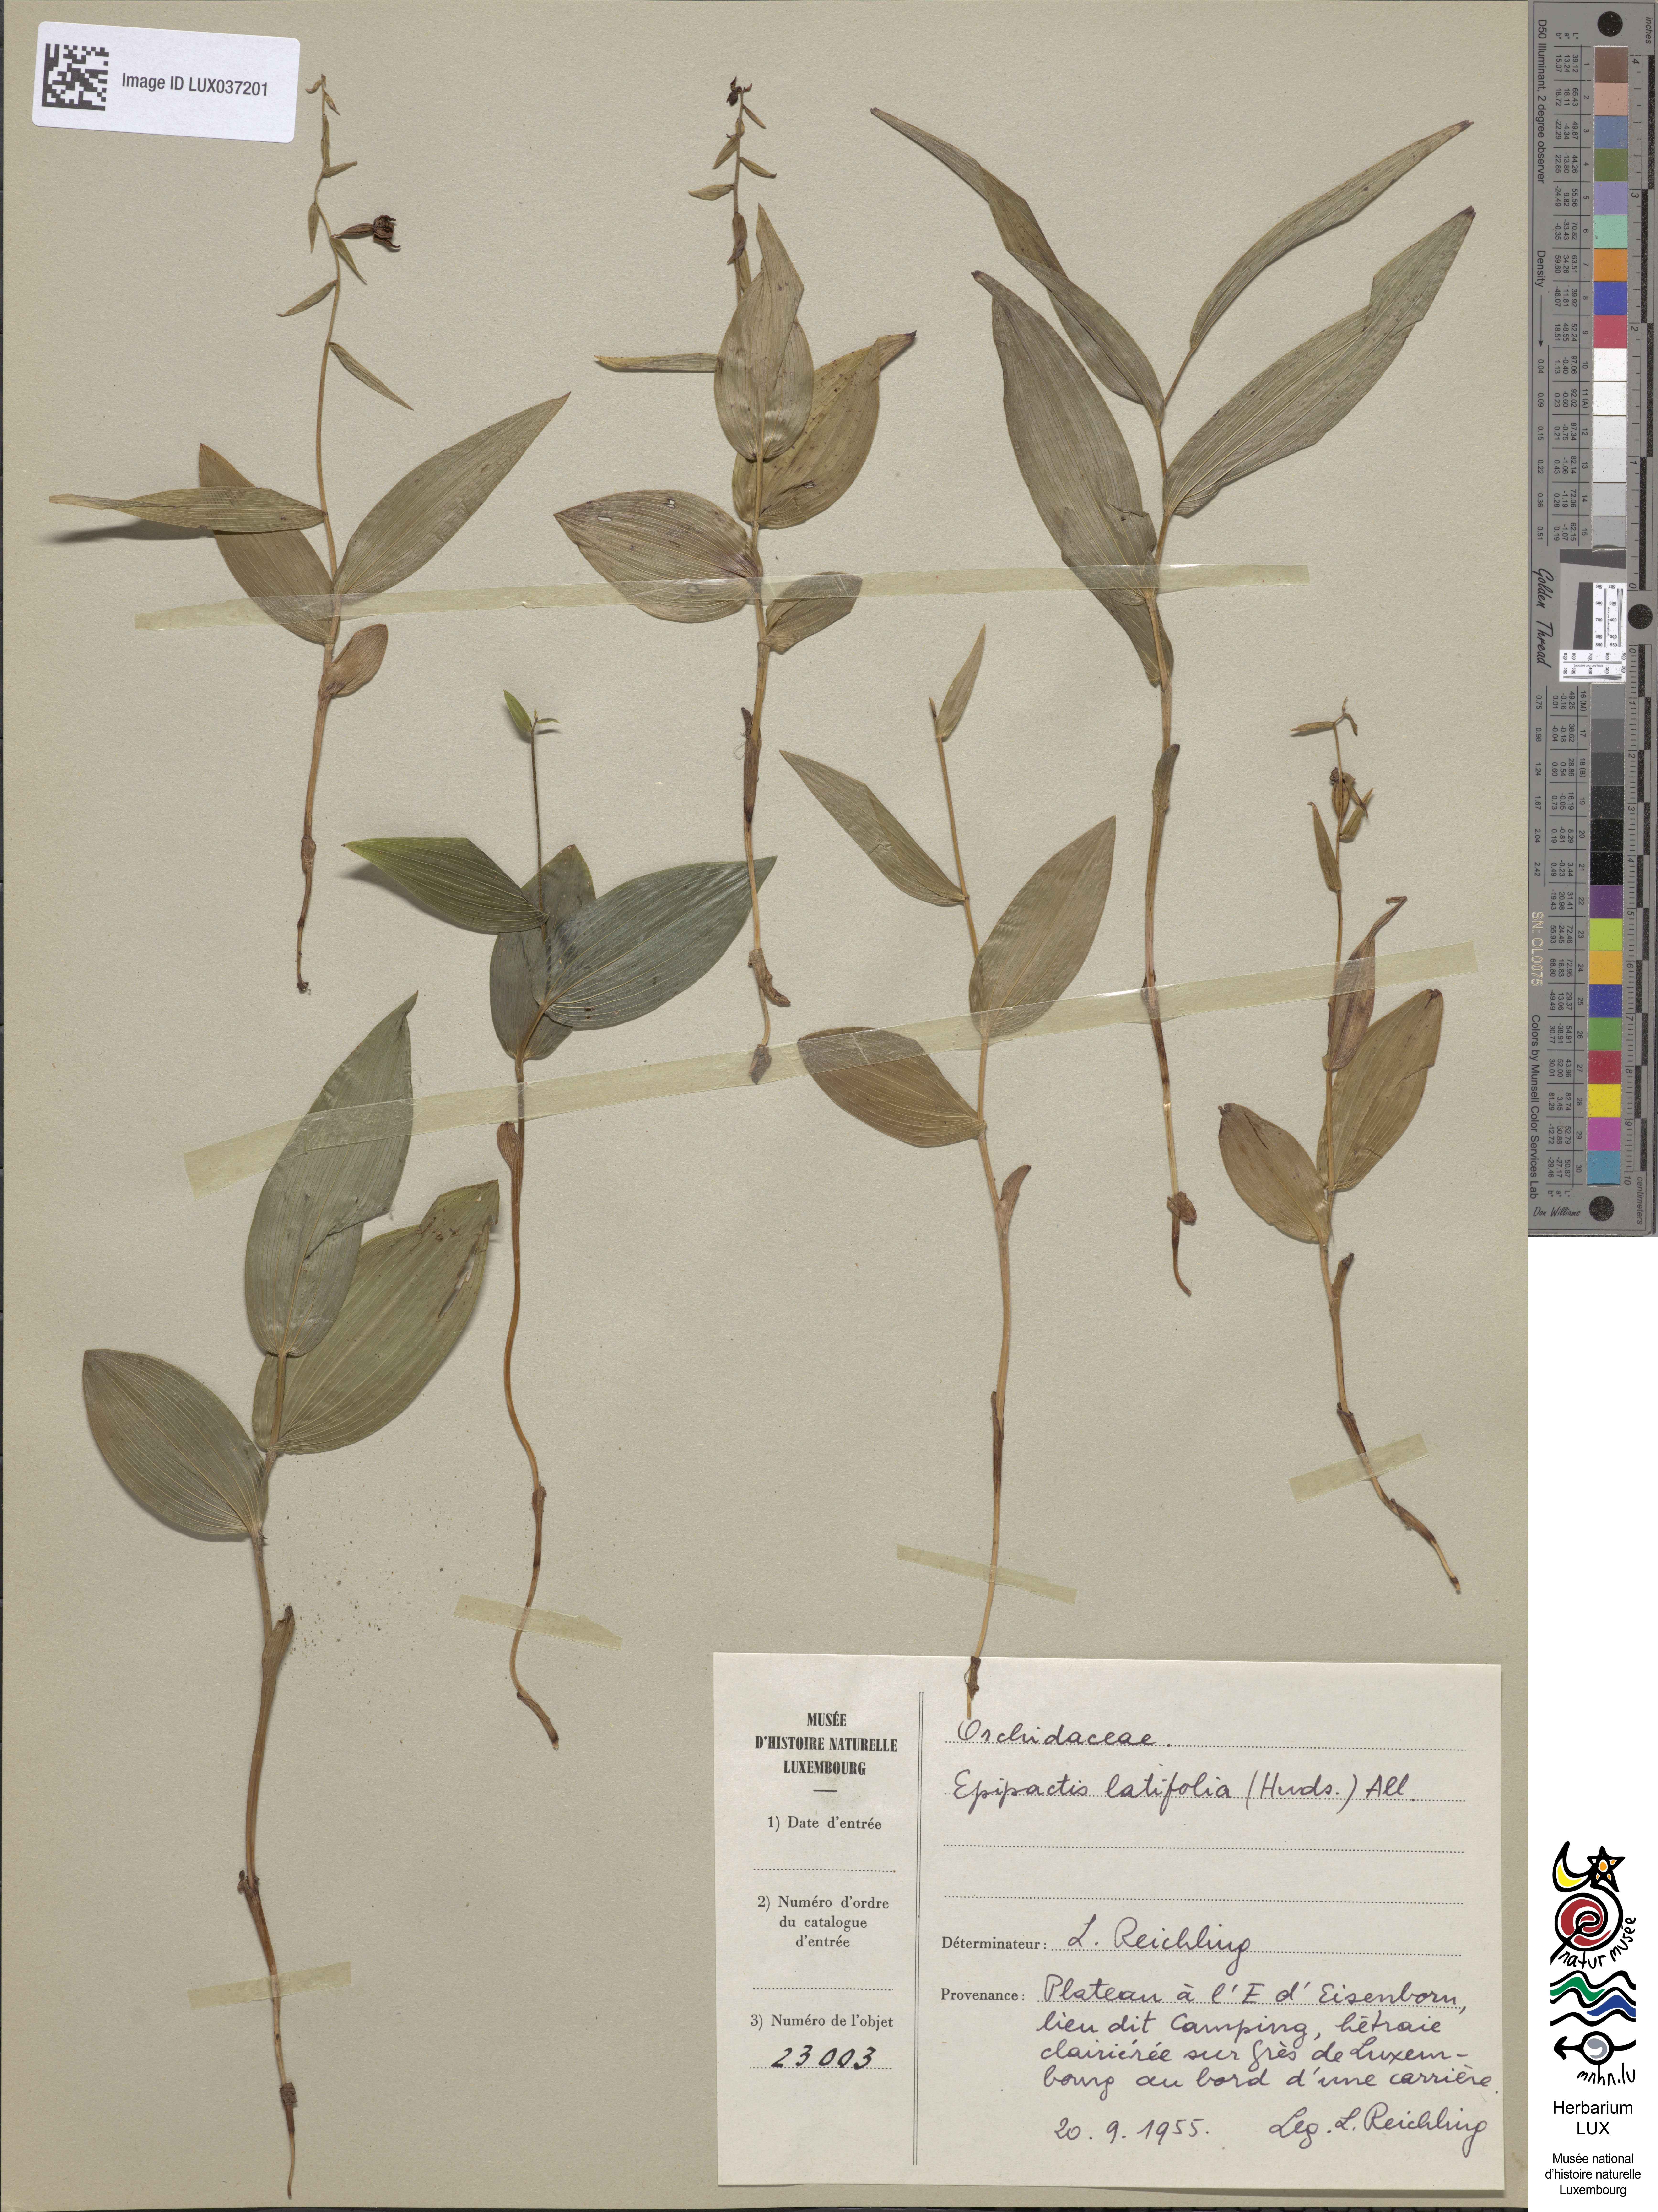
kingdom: Plantae
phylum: Tracheophyta
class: Liliopsida
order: Asparagales
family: Orchidaceae
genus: Epipactis
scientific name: Epipactis helleborine
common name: Broad-leaved helleborine
